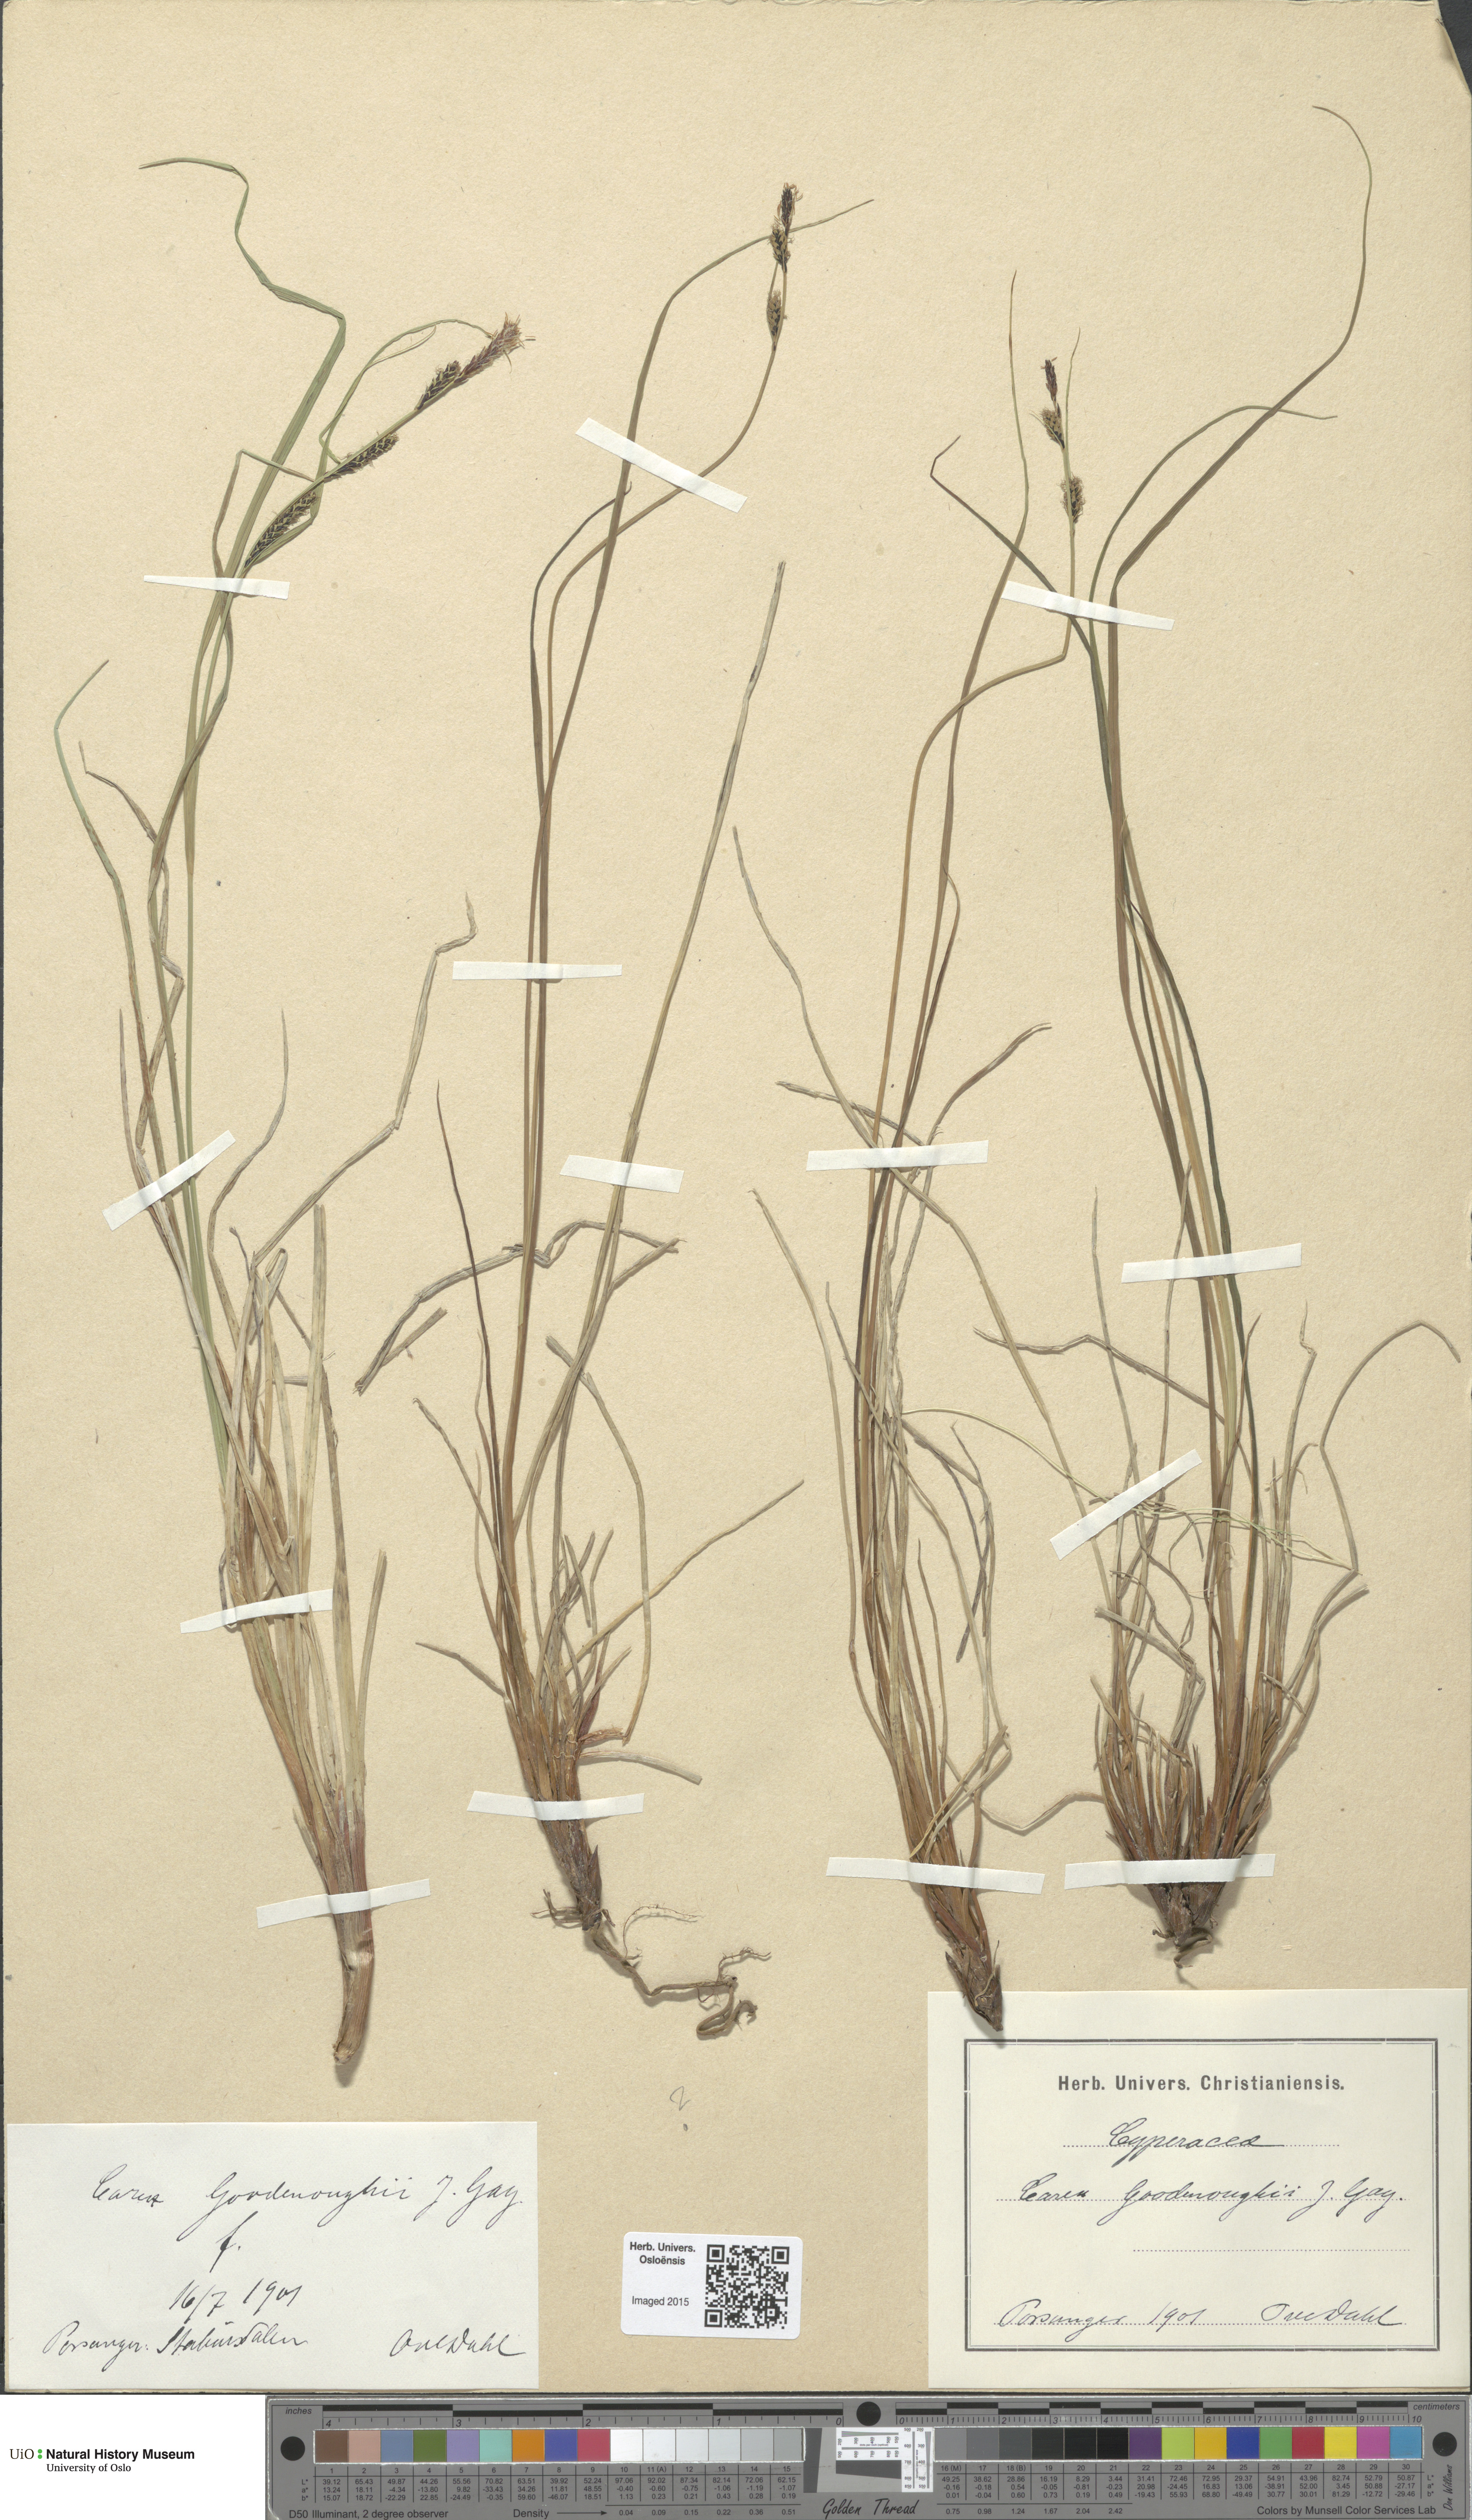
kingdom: Plantae
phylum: Tracheophyta
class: Liliopsida
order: Poales
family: Cyperaceae
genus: Carex
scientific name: Carex nigra
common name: Common sedge
